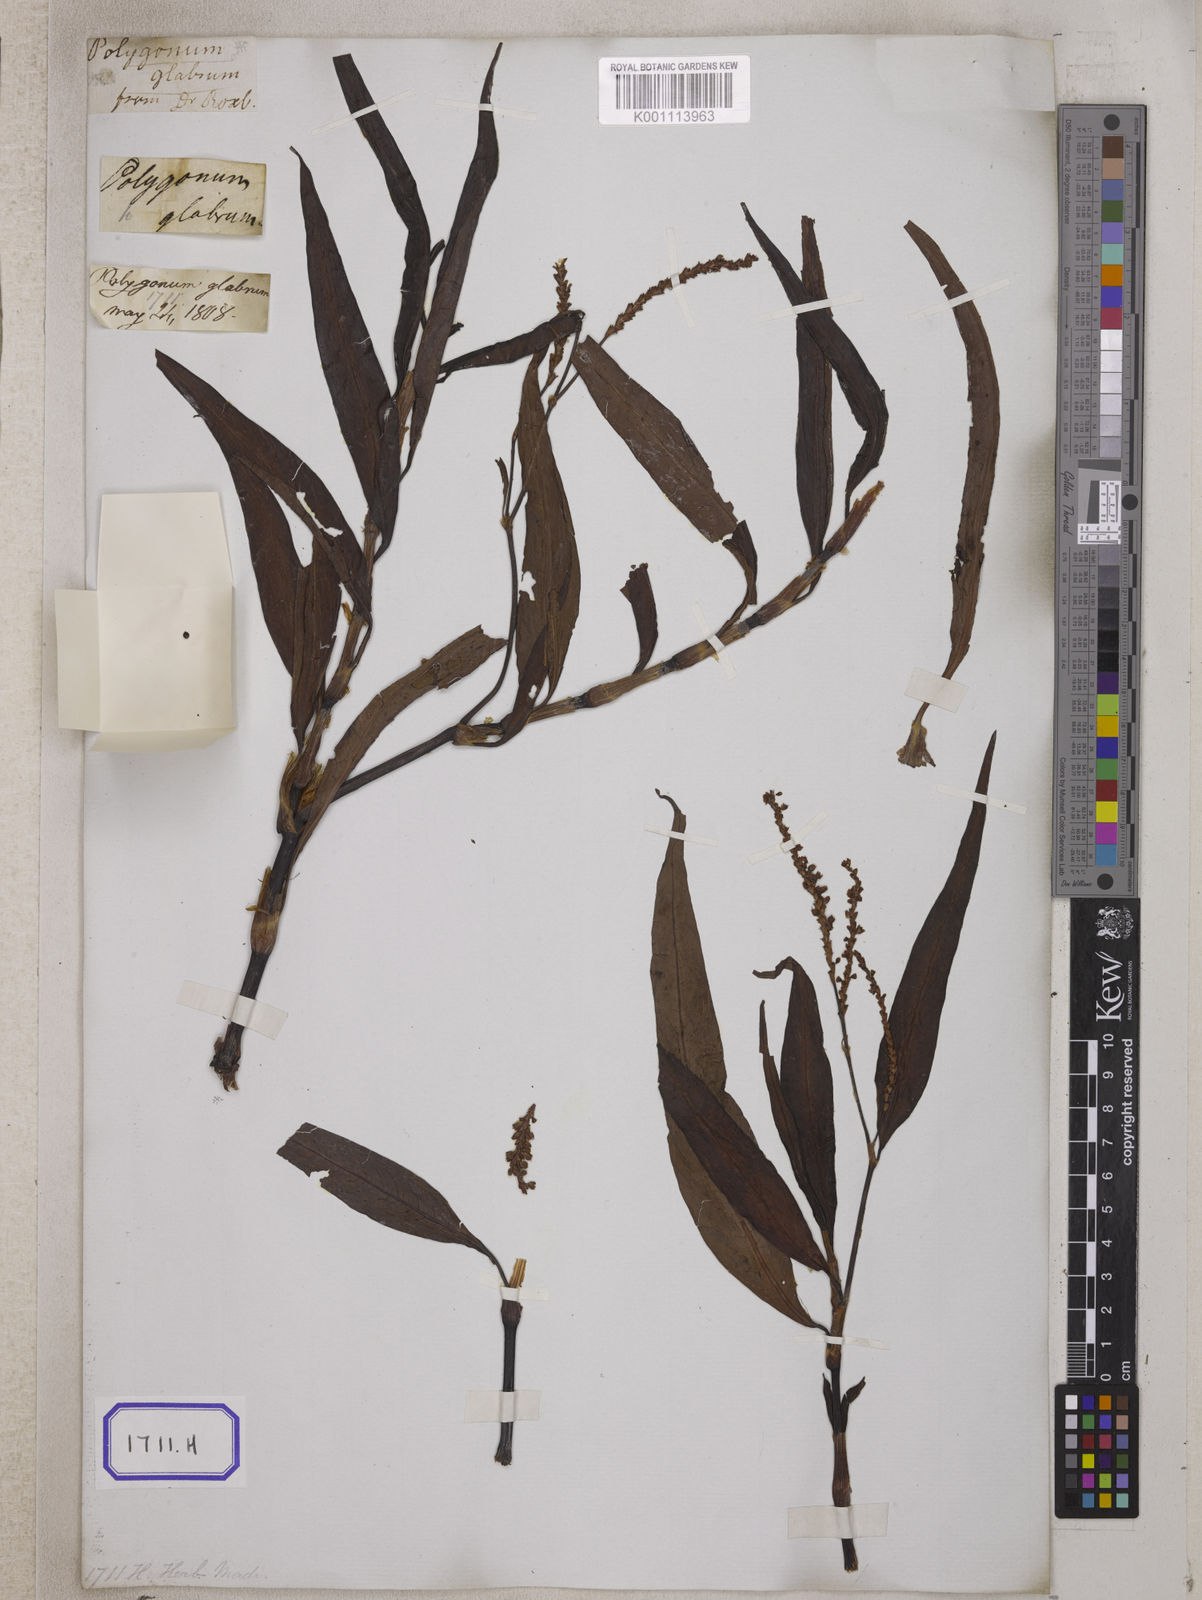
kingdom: Plantae
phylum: Tracheophyta
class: Magnoliopsida
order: Caryophyllales
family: Polygonaceae
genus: Persicaria
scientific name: Persicaria glabra
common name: Denseflower knotweed
